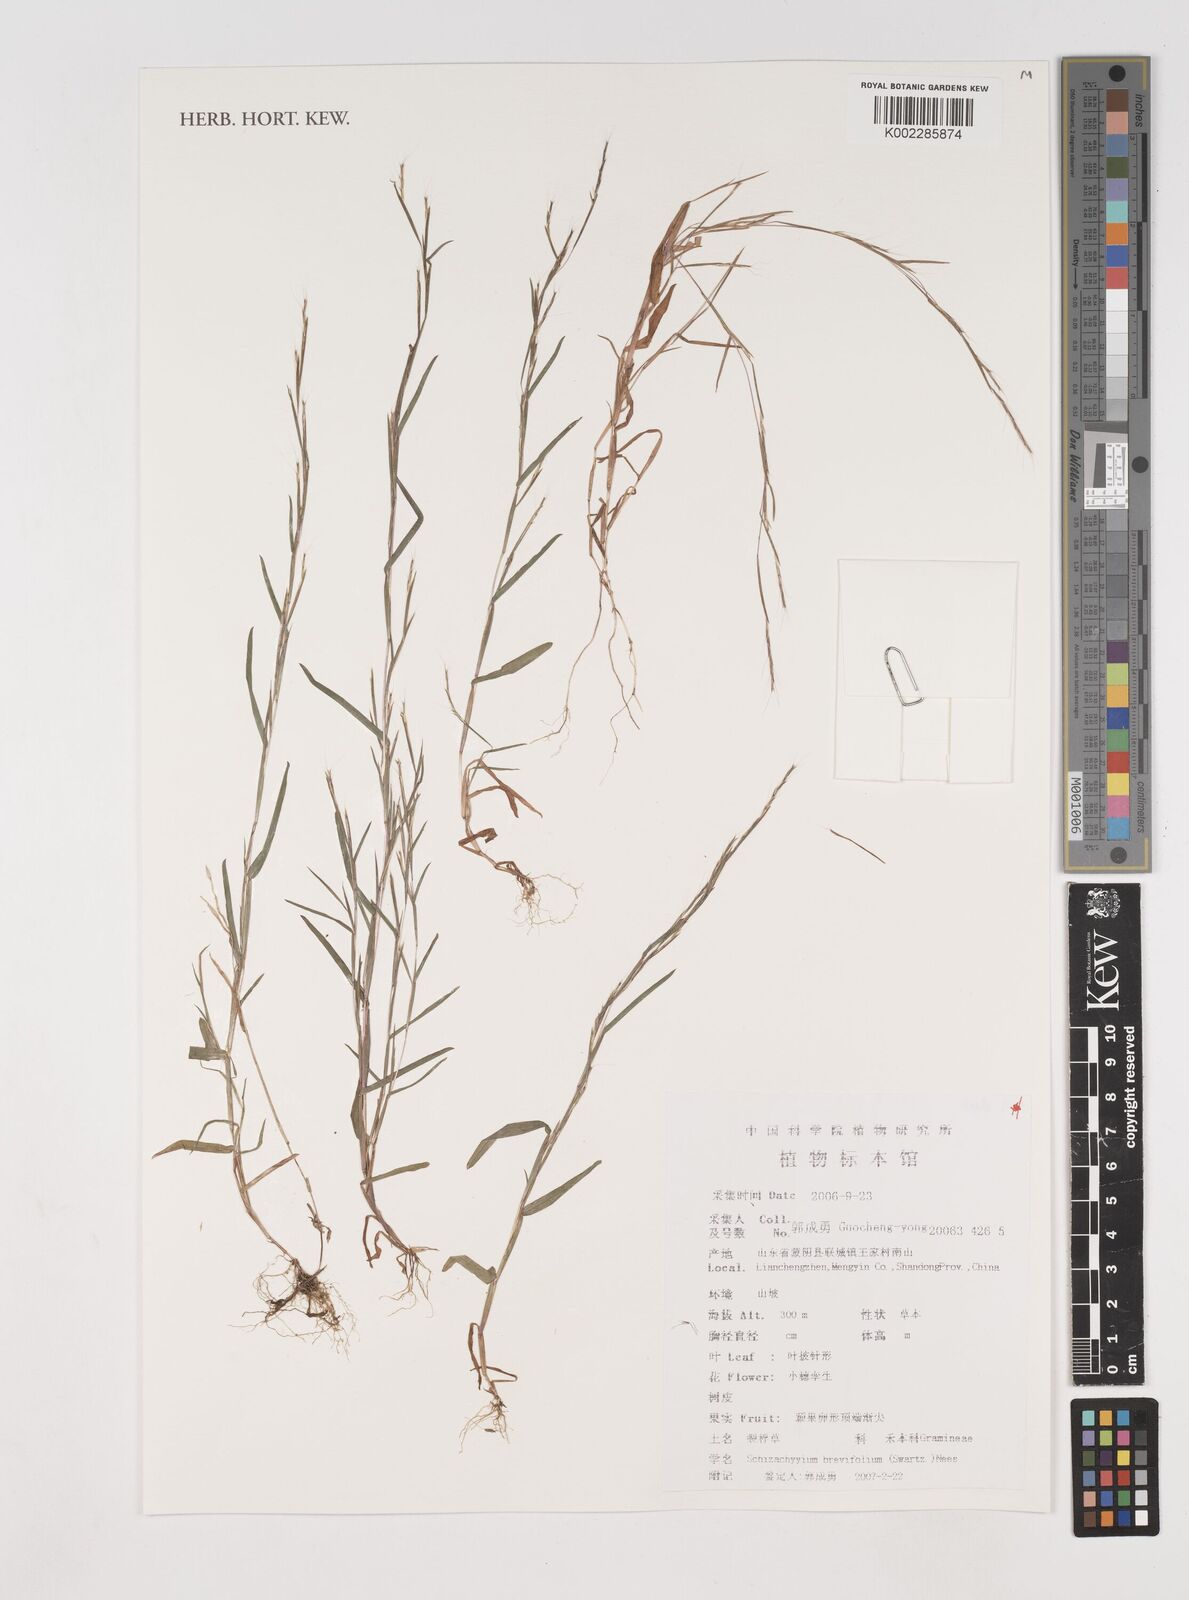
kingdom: Plantae
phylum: Tracheophyta
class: Liliopsida
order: Poales
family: Poaceae
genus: Schizachyrium
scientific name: Schizachyrium brevifolium
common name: Serillo dulce
